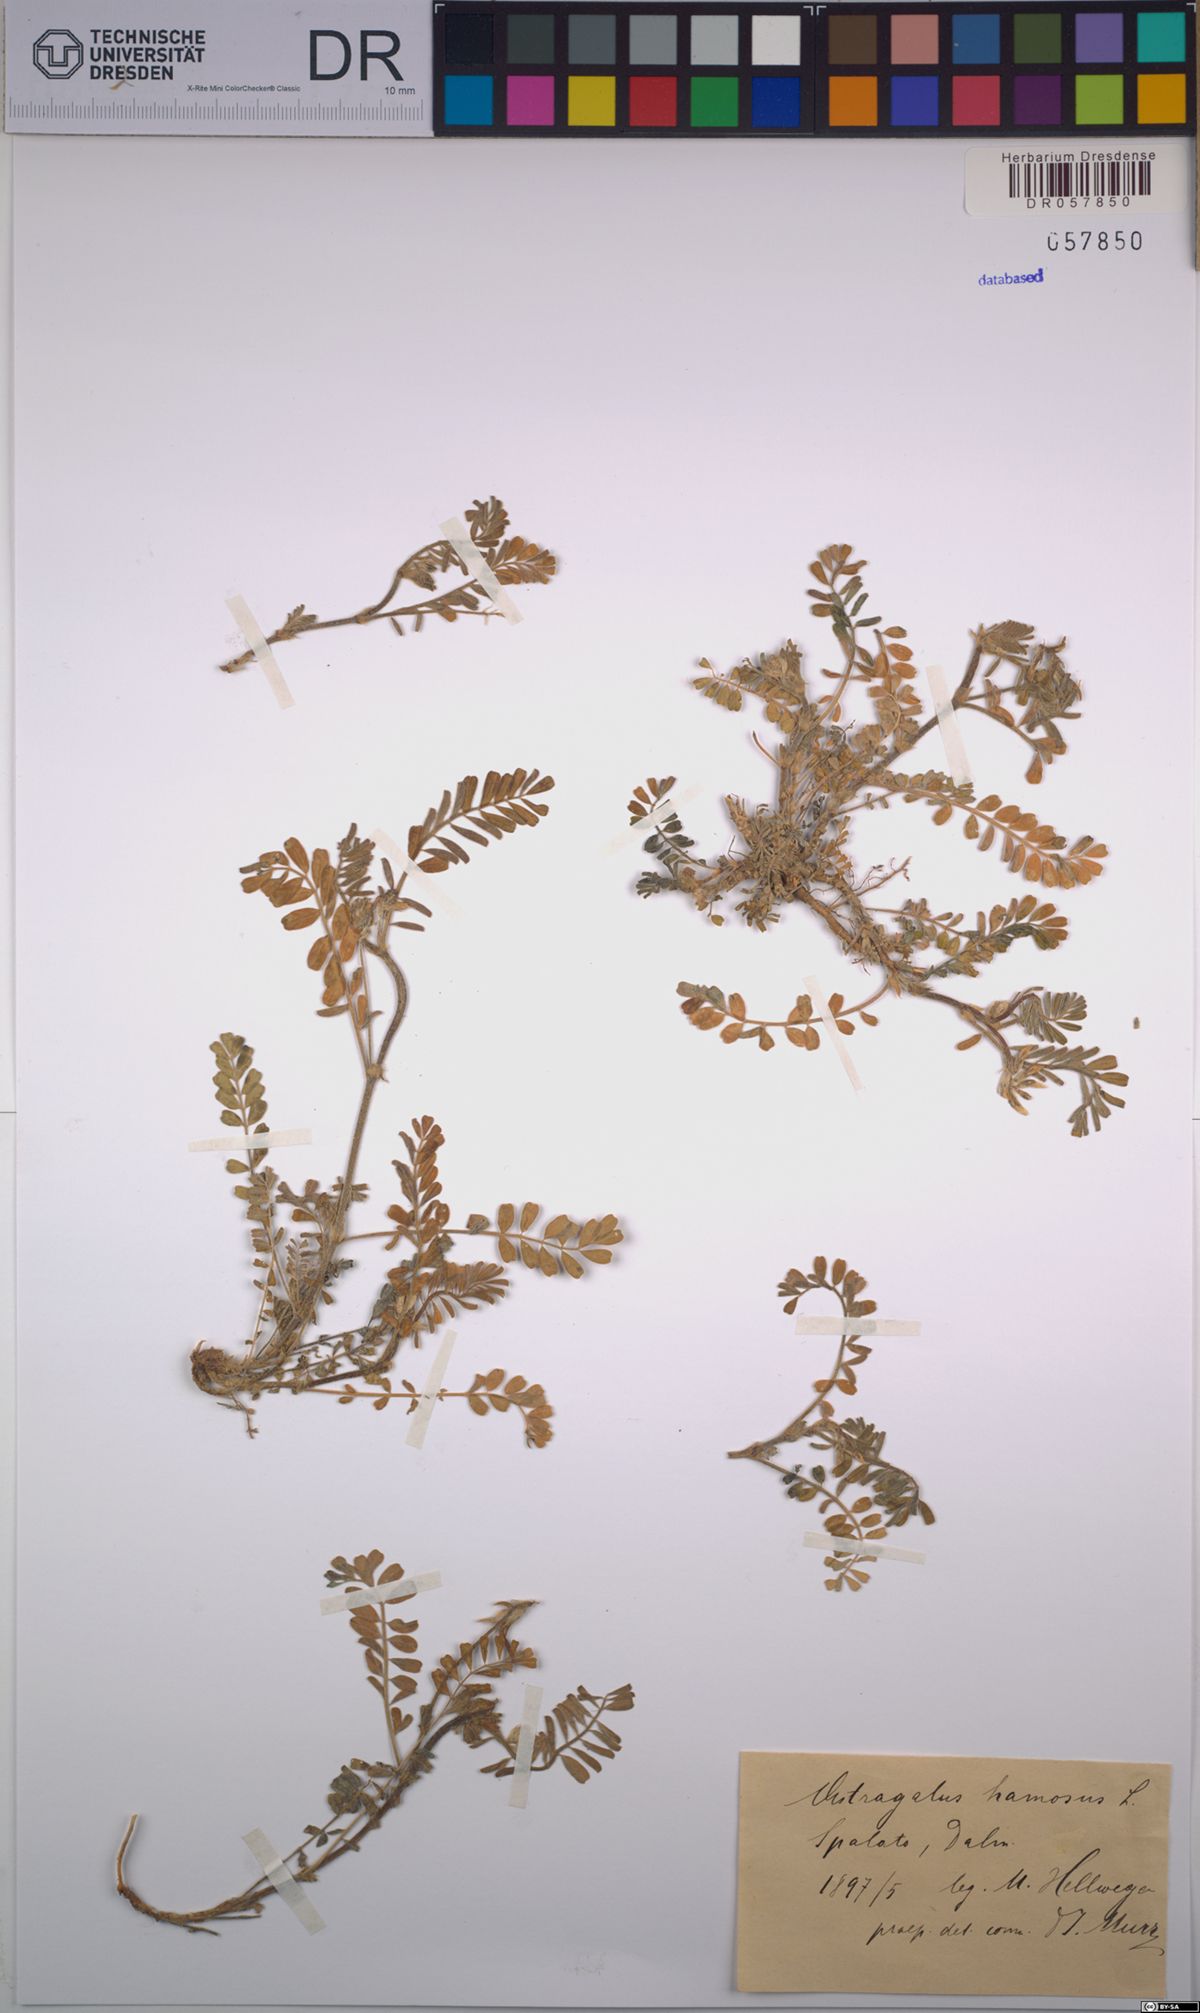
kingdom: Plantae
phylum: Tracheophyta
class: Magnoliopsida
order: Fabales
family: Fabaceae
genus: Astragalus
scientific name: Astragalus hamosus
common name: European milkvetch
